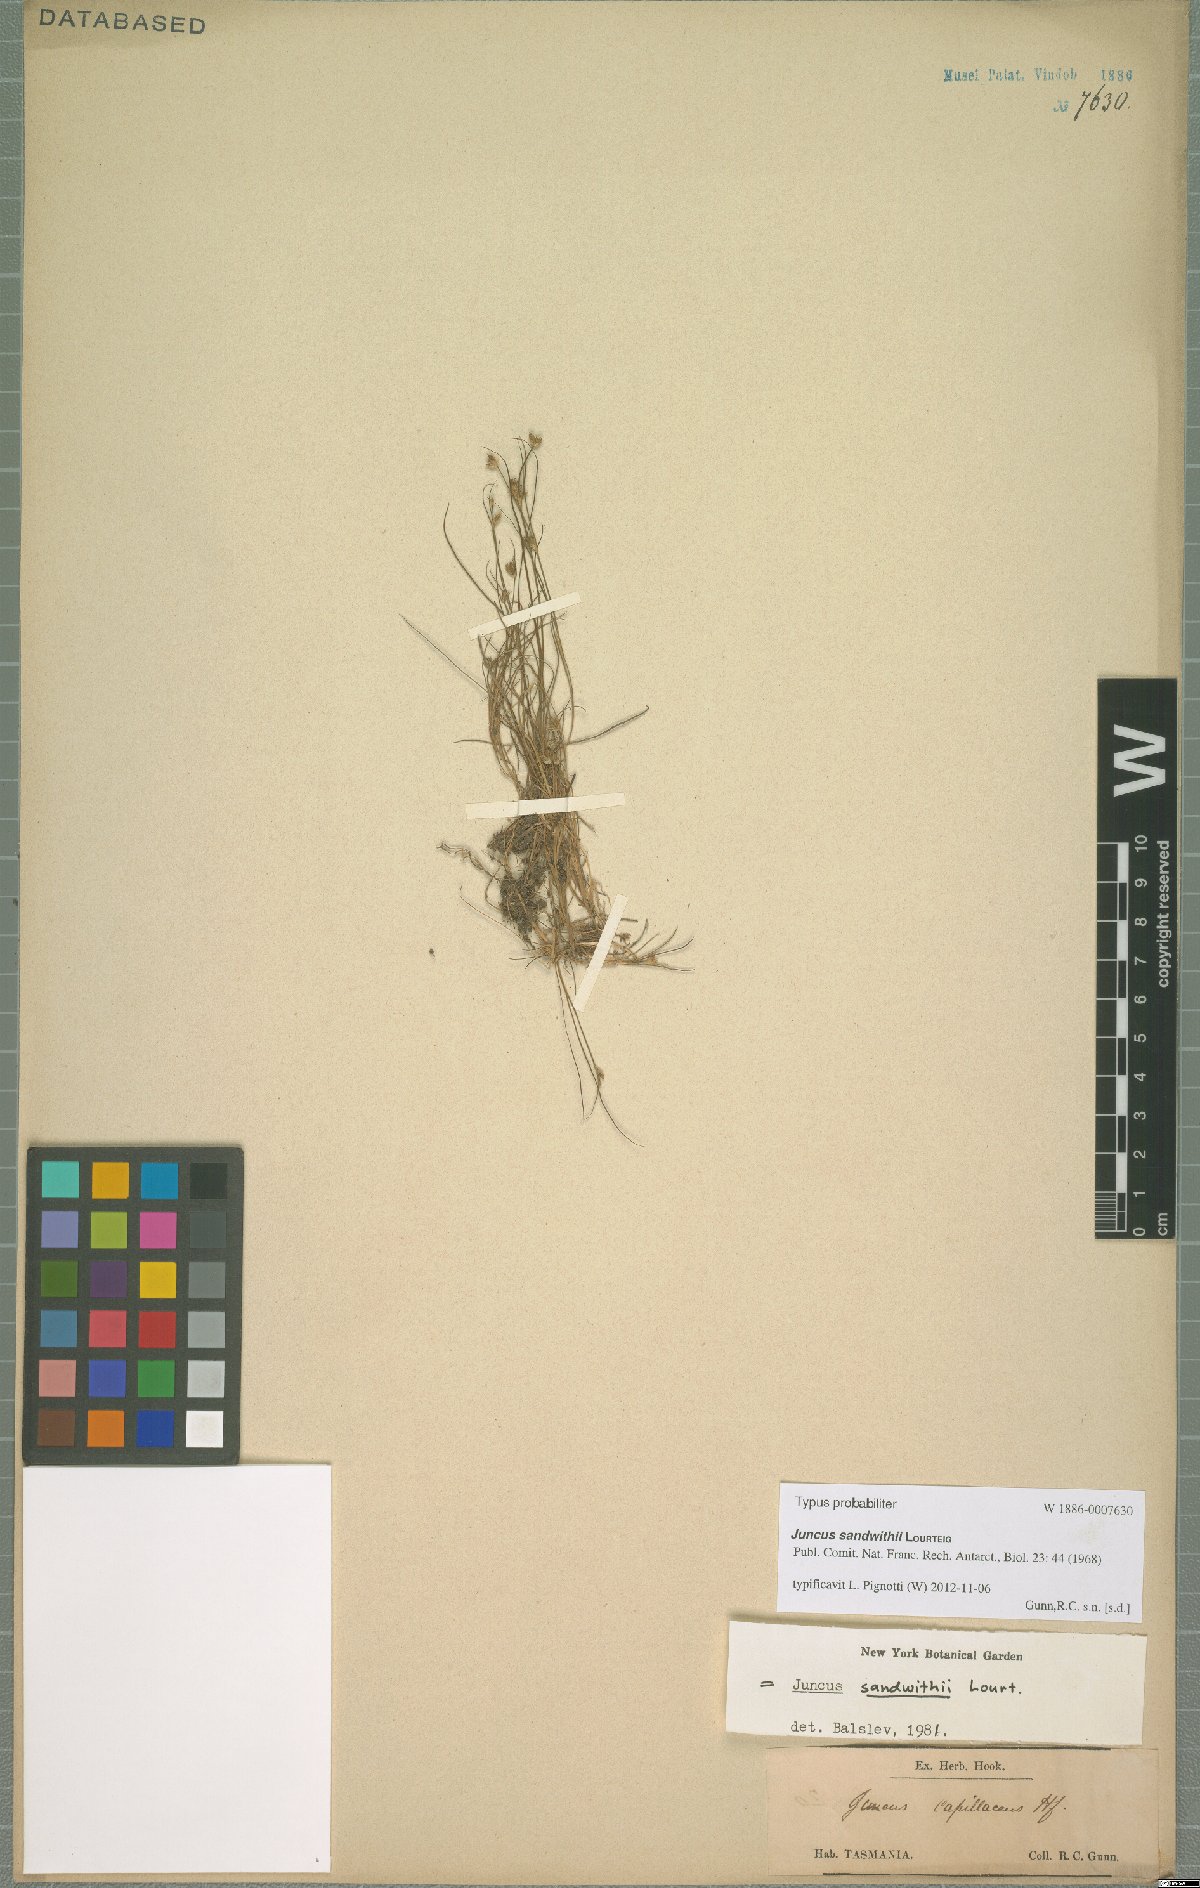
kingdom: Plantae
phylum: Tracheophyta
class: Liliopsida
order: Poales
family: Juncaceae
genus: Juncus
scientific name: Juncus sandwithii
